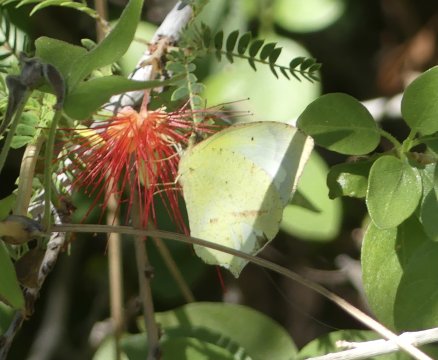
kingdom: Animalia
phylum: Arthropoda
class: Insecta
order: Lepidoptera
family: Pieridae
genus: Eurema
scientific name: Eurema mexicana
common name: Mexican Yellow
